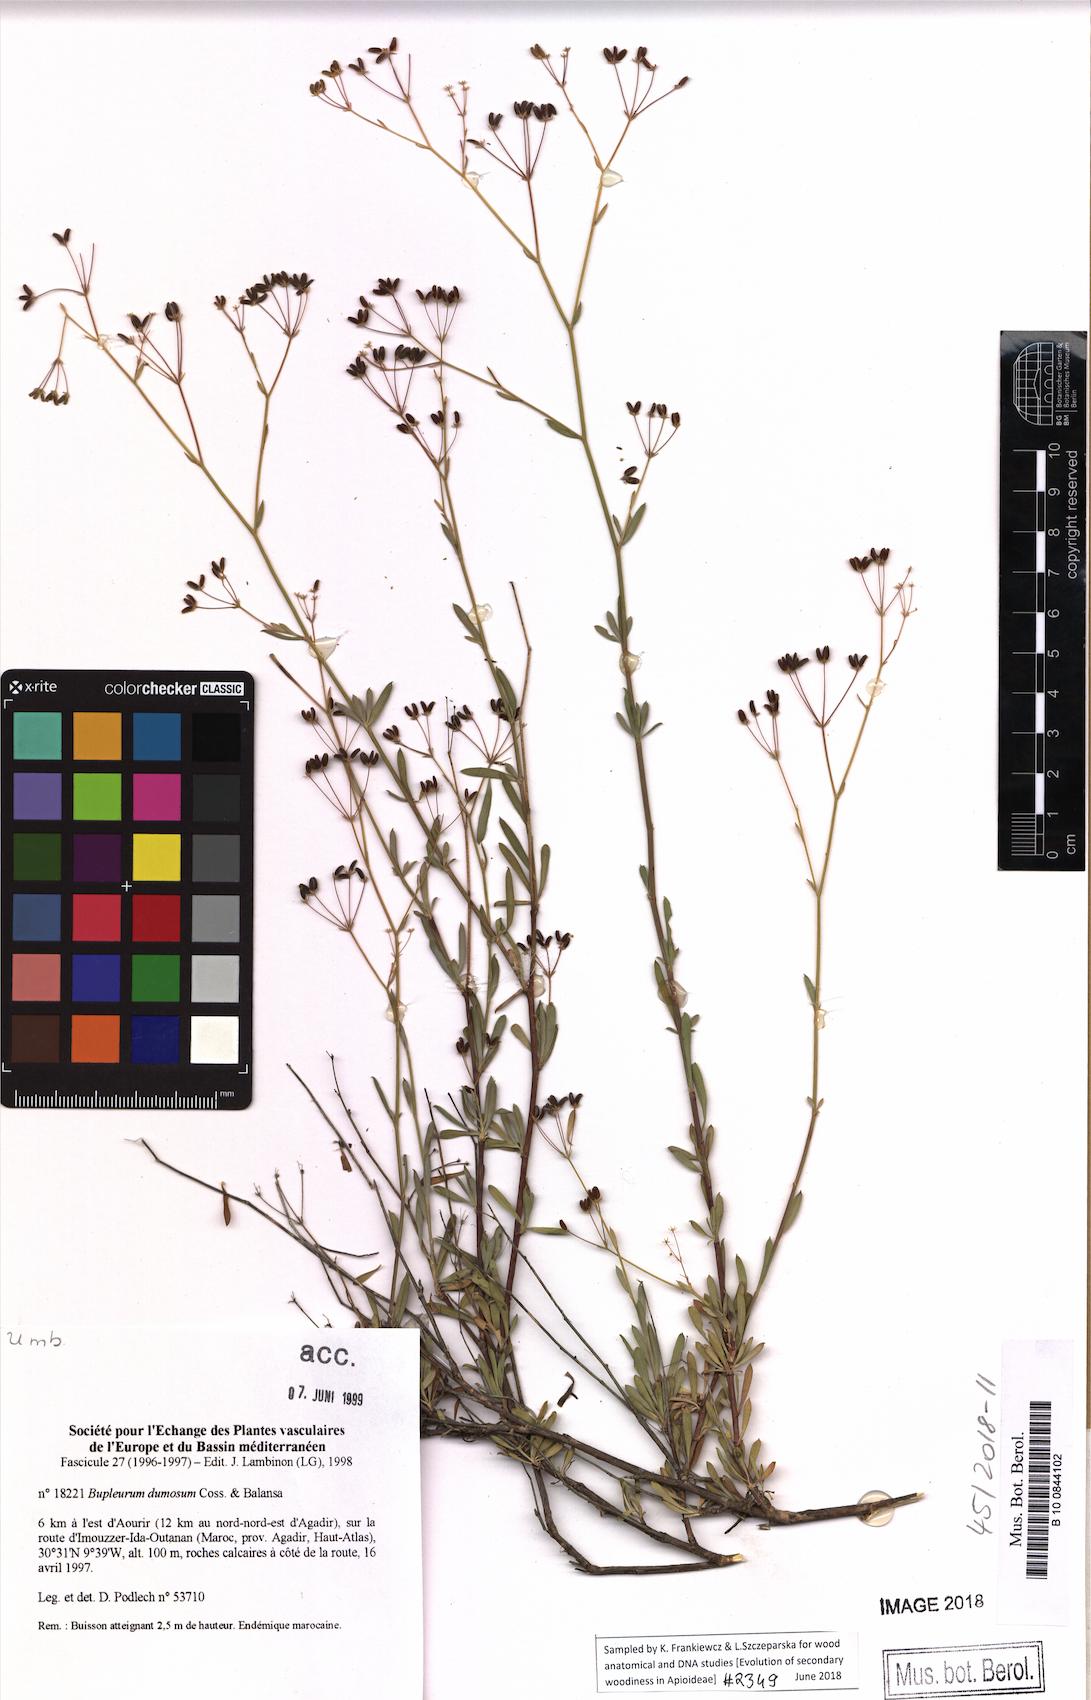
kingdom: Plantae
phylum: Tracheophyta
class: Magnoliopsida
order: Apiales
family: Apiaceae
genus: Bupleurum
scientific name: Bupleurum dumosum
